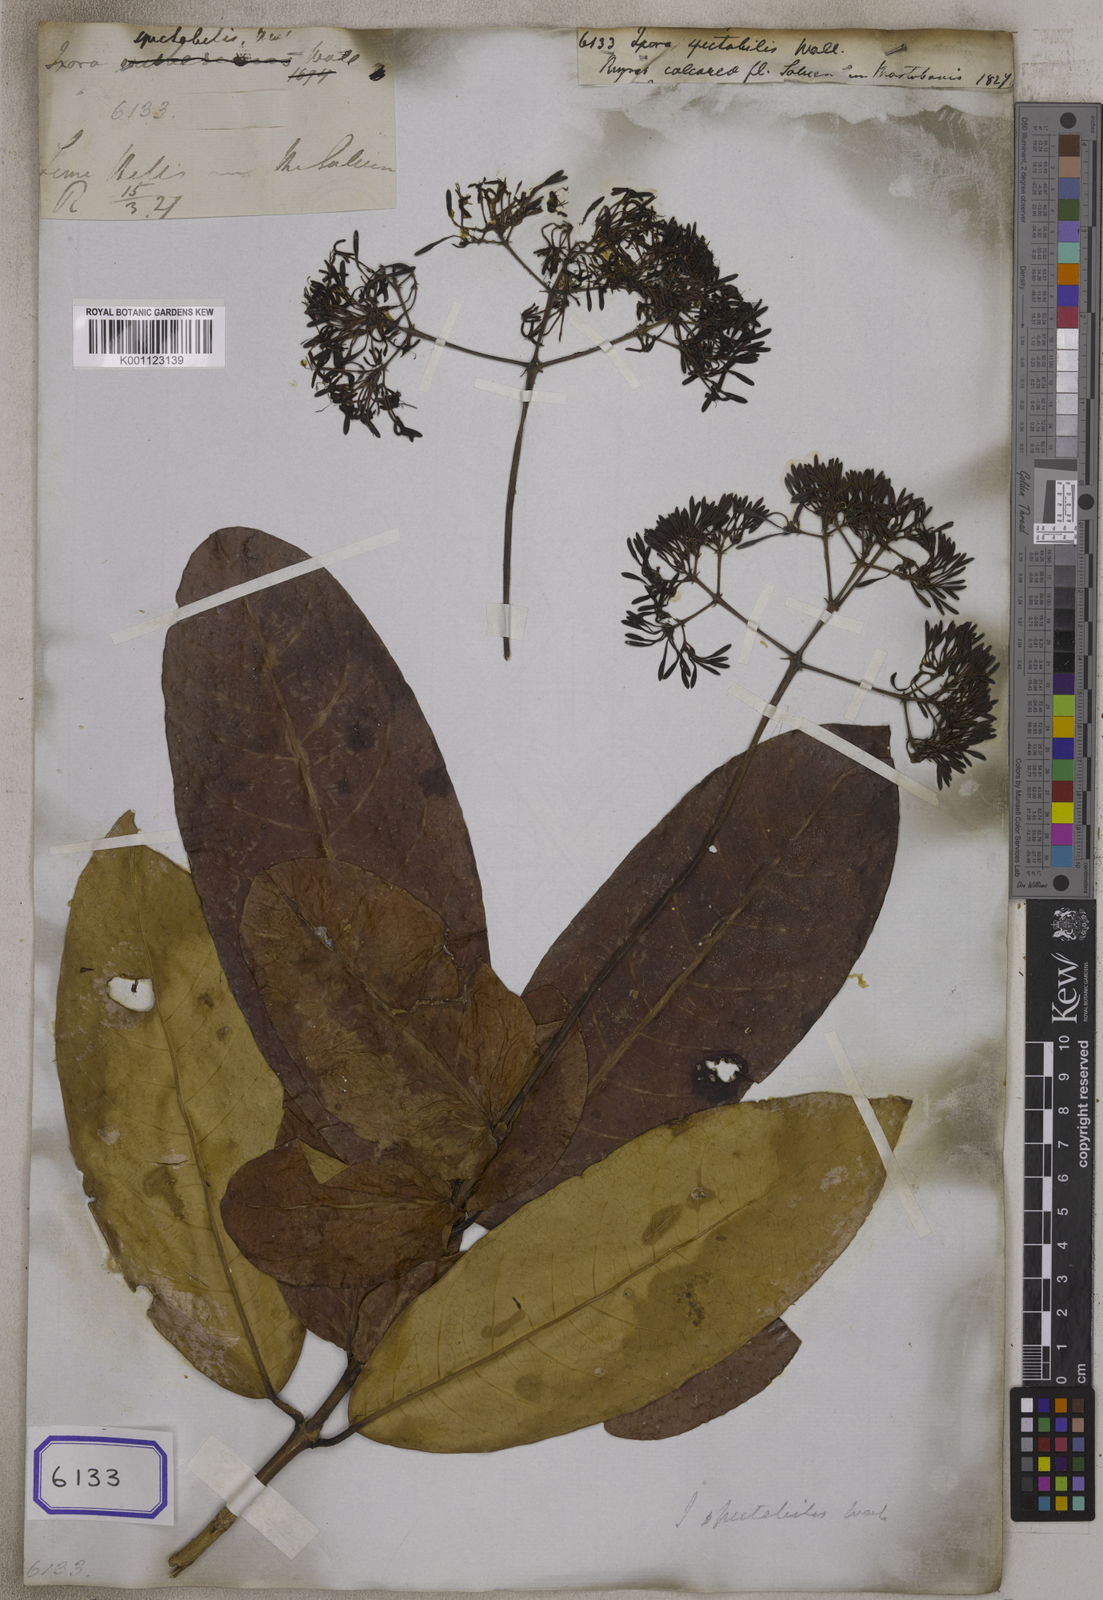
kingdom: Plantae
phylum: Tracheophyta
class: Magnoliopsida
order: Gentianales
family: Rubiaceae
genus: Ixora
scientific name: Ixora
